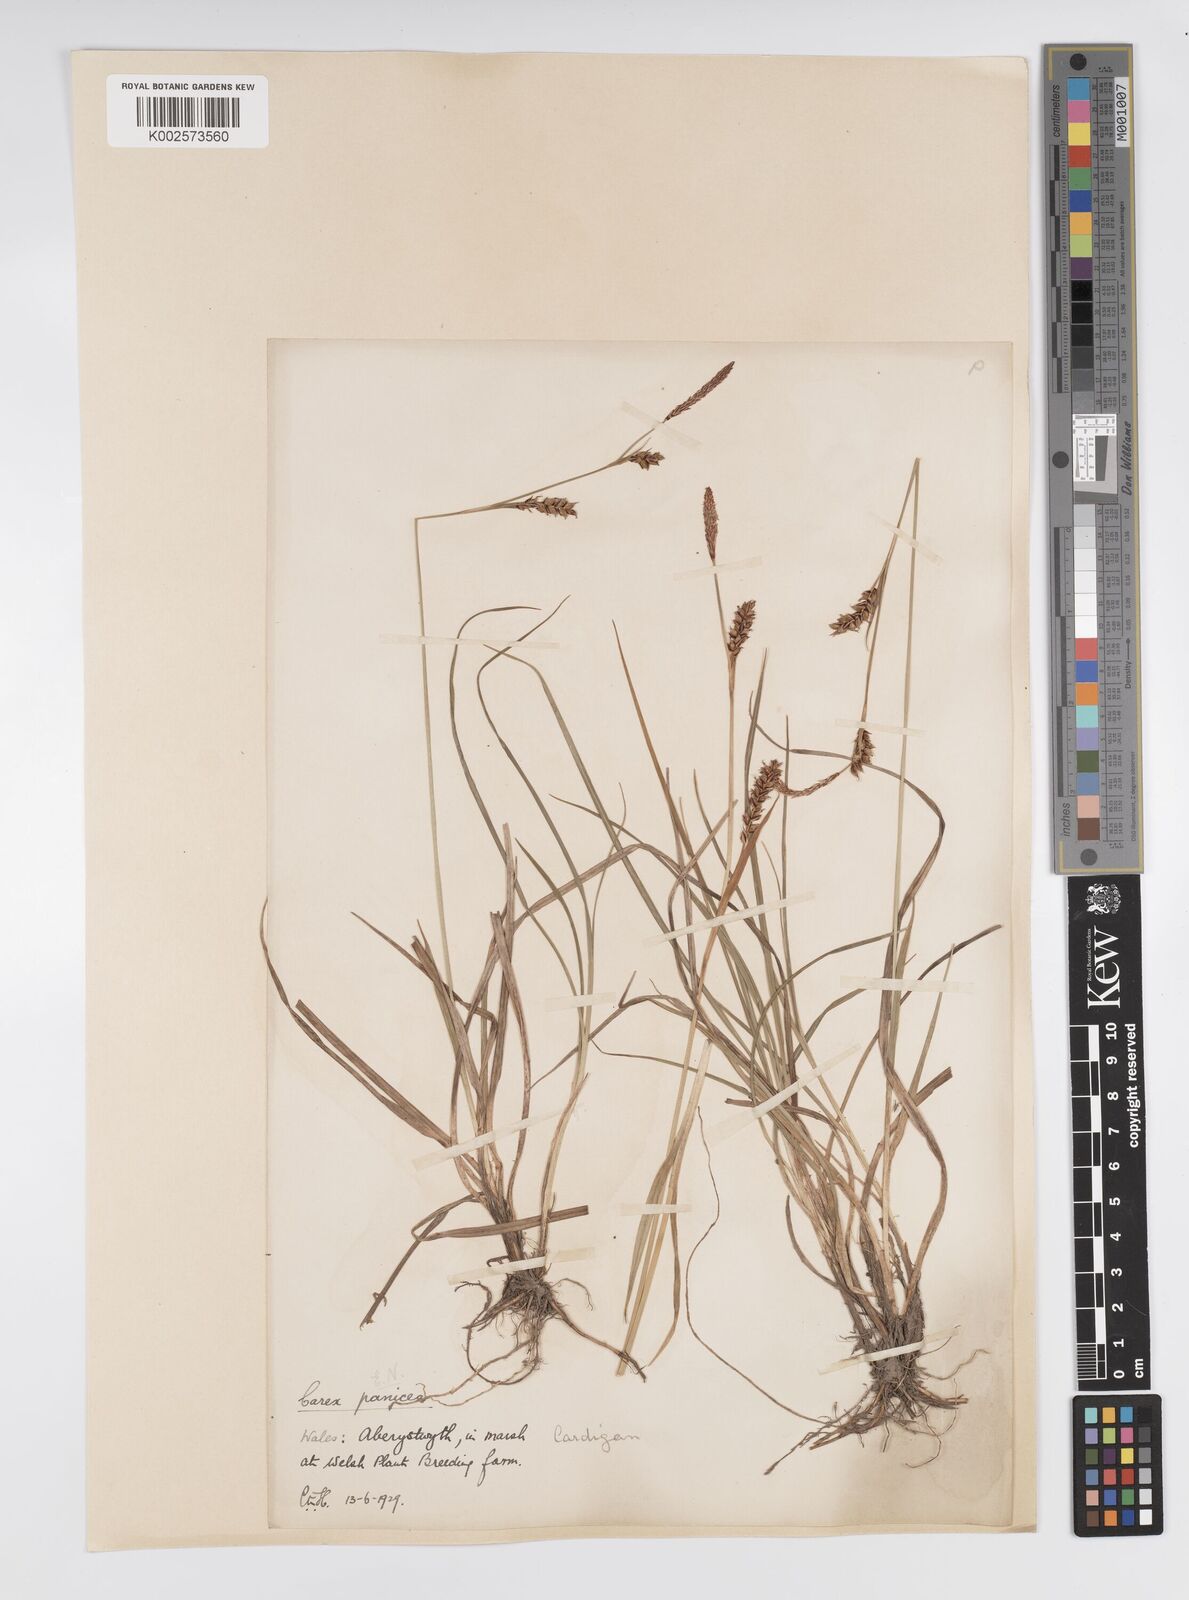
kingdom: Plantae
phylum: Tracheophyta
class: Liliopsida
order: Poales
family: Cyperaceae
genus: Carex
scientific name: Carex panicea
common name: Carnation sedge
